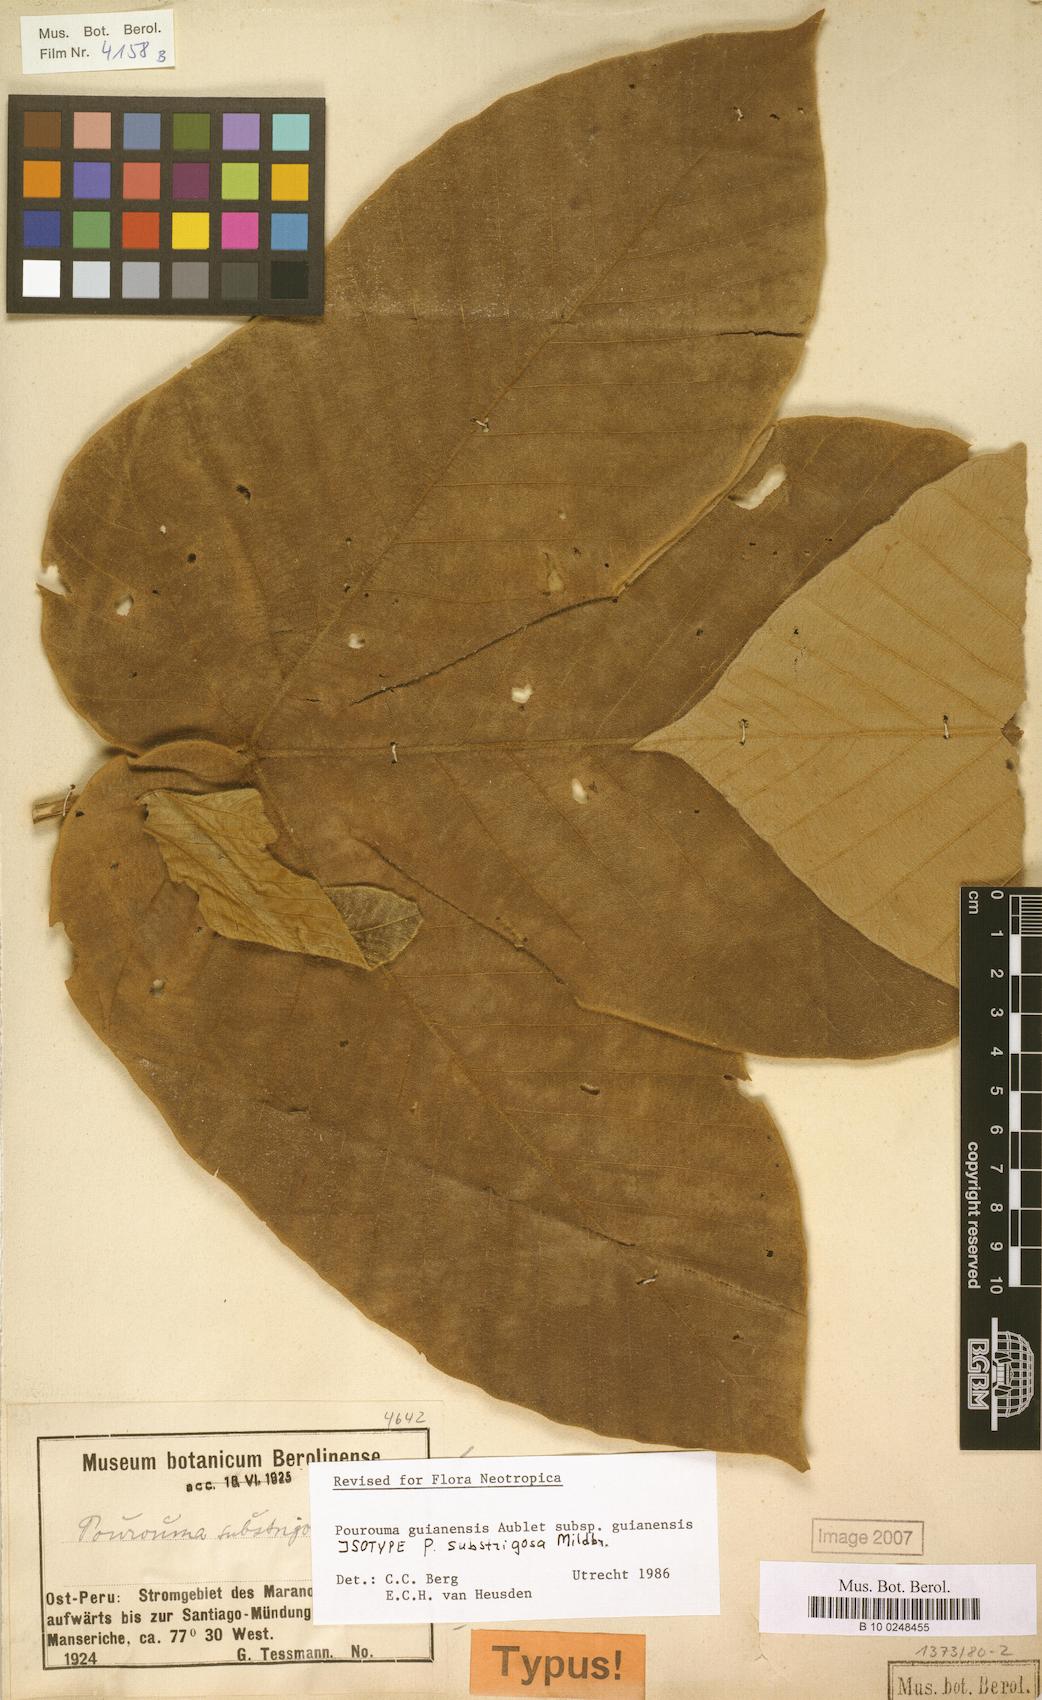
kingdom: Plantae
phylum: Tracheophyta
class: Magnoliopsida
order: Rosales
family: Urticaceae
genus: Pourouma
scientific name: Pourouma guianensis
